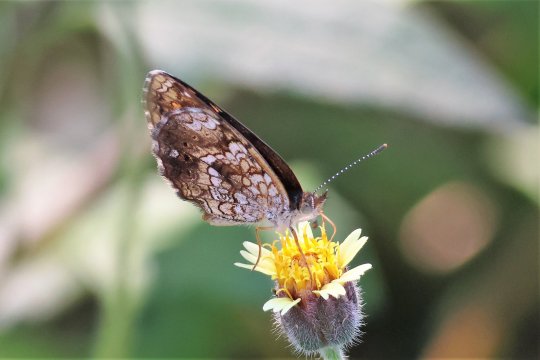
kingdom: Animalia
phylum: Arthropoda
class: Insecta
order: Lepidoptera
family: Nymphalidae
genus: Phyciodes
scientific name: Phyciodes vesta
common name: Vesta Crescent
